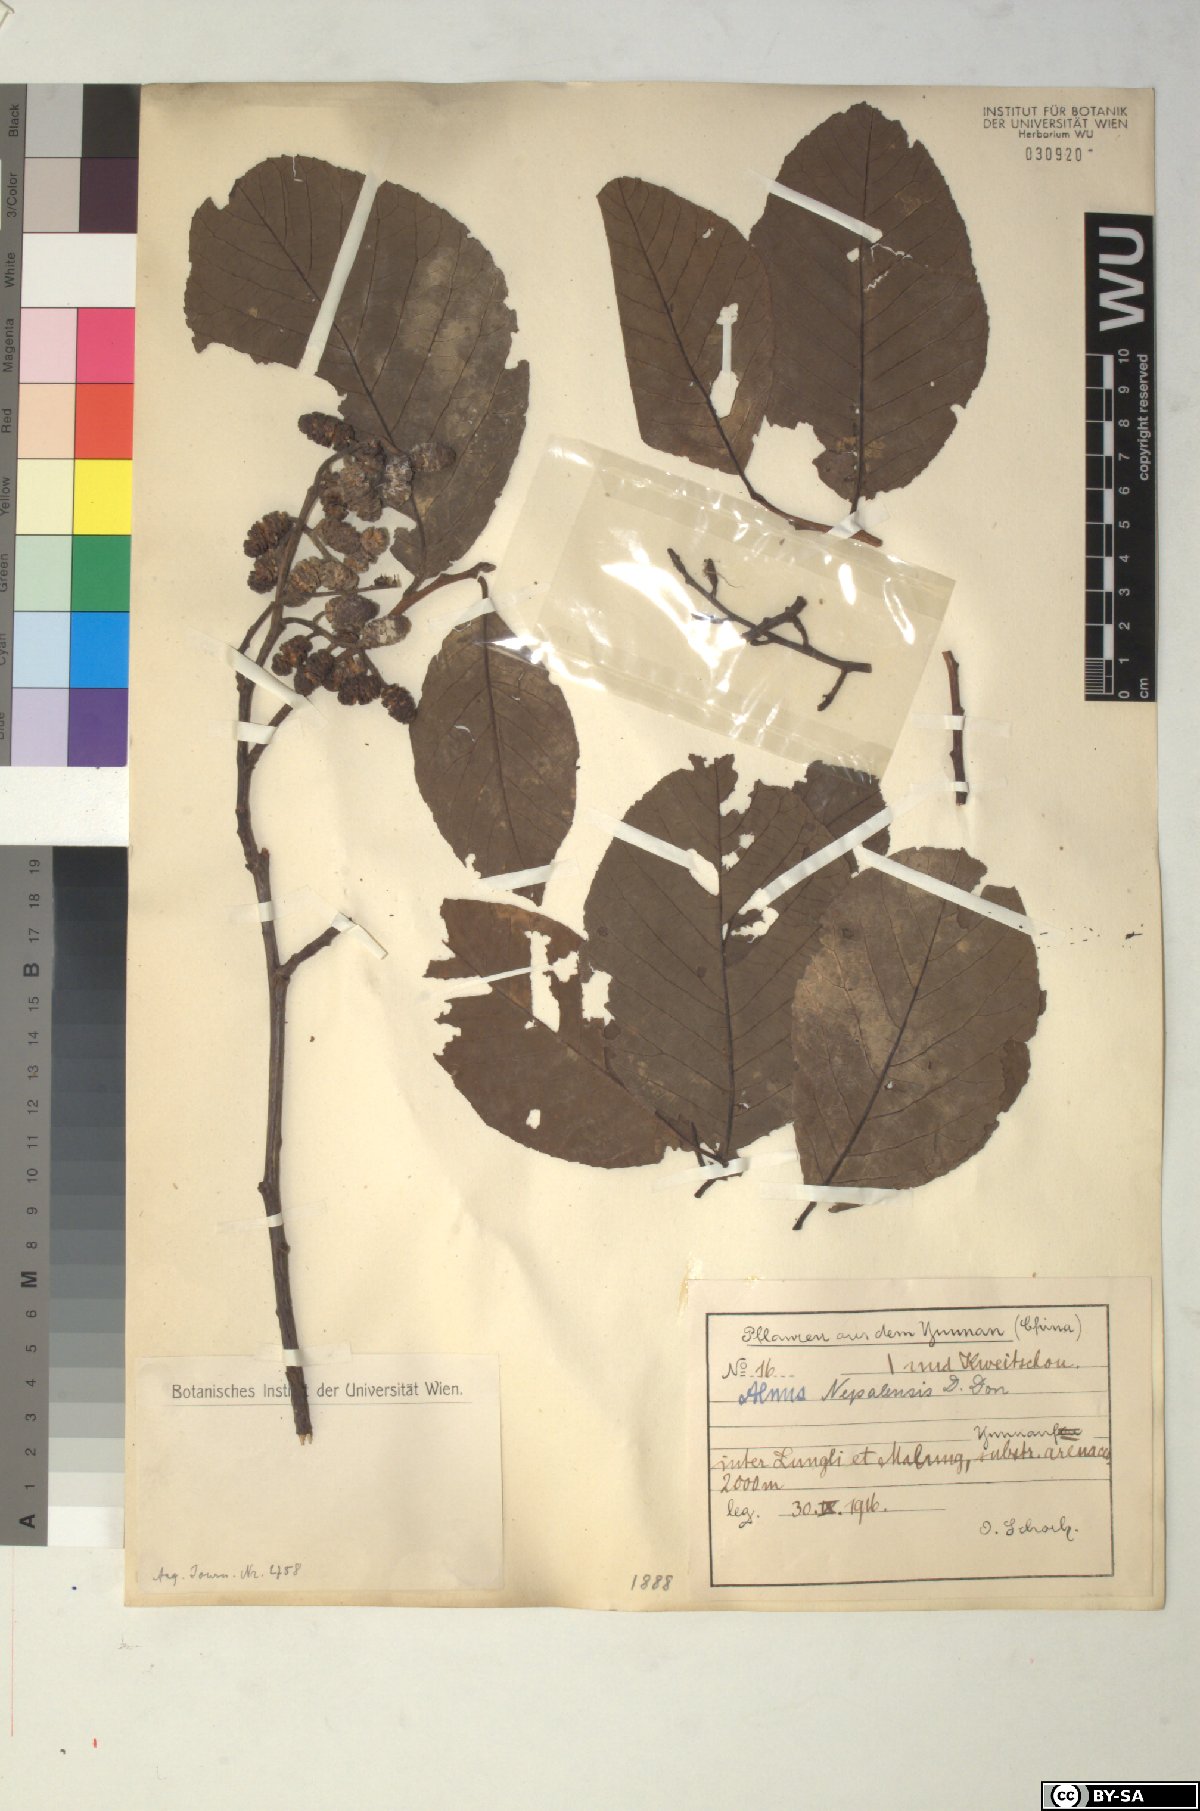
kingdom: Plantae
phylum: Tracheophyta
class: Magnoliopsida
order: Fagales
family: Betulaceae
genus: Alnus
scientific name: Alnus nepalensis
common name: Nepal alder
